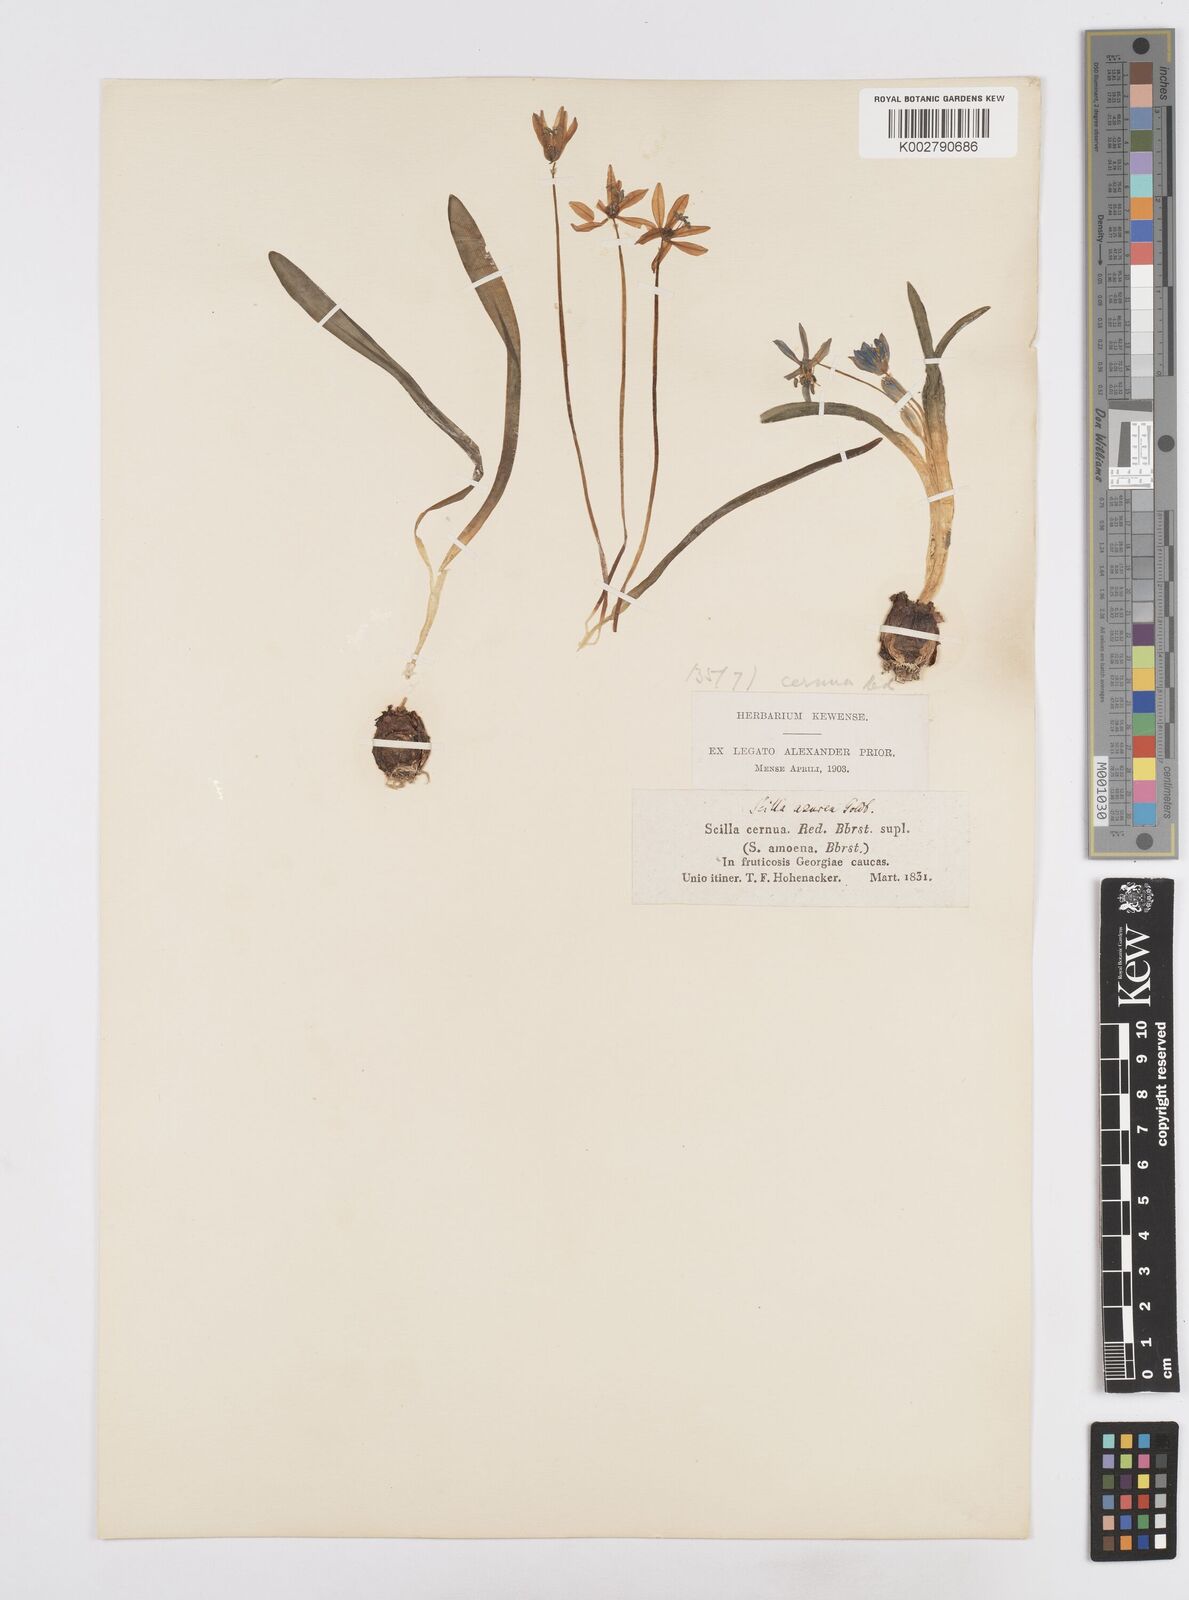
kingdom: Plantae
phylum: Tracheophyta
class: Liliopsida
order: Asparagales
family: Asparagaceae
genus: Scilla
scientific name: Scilla siberica
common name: Siberian squill
